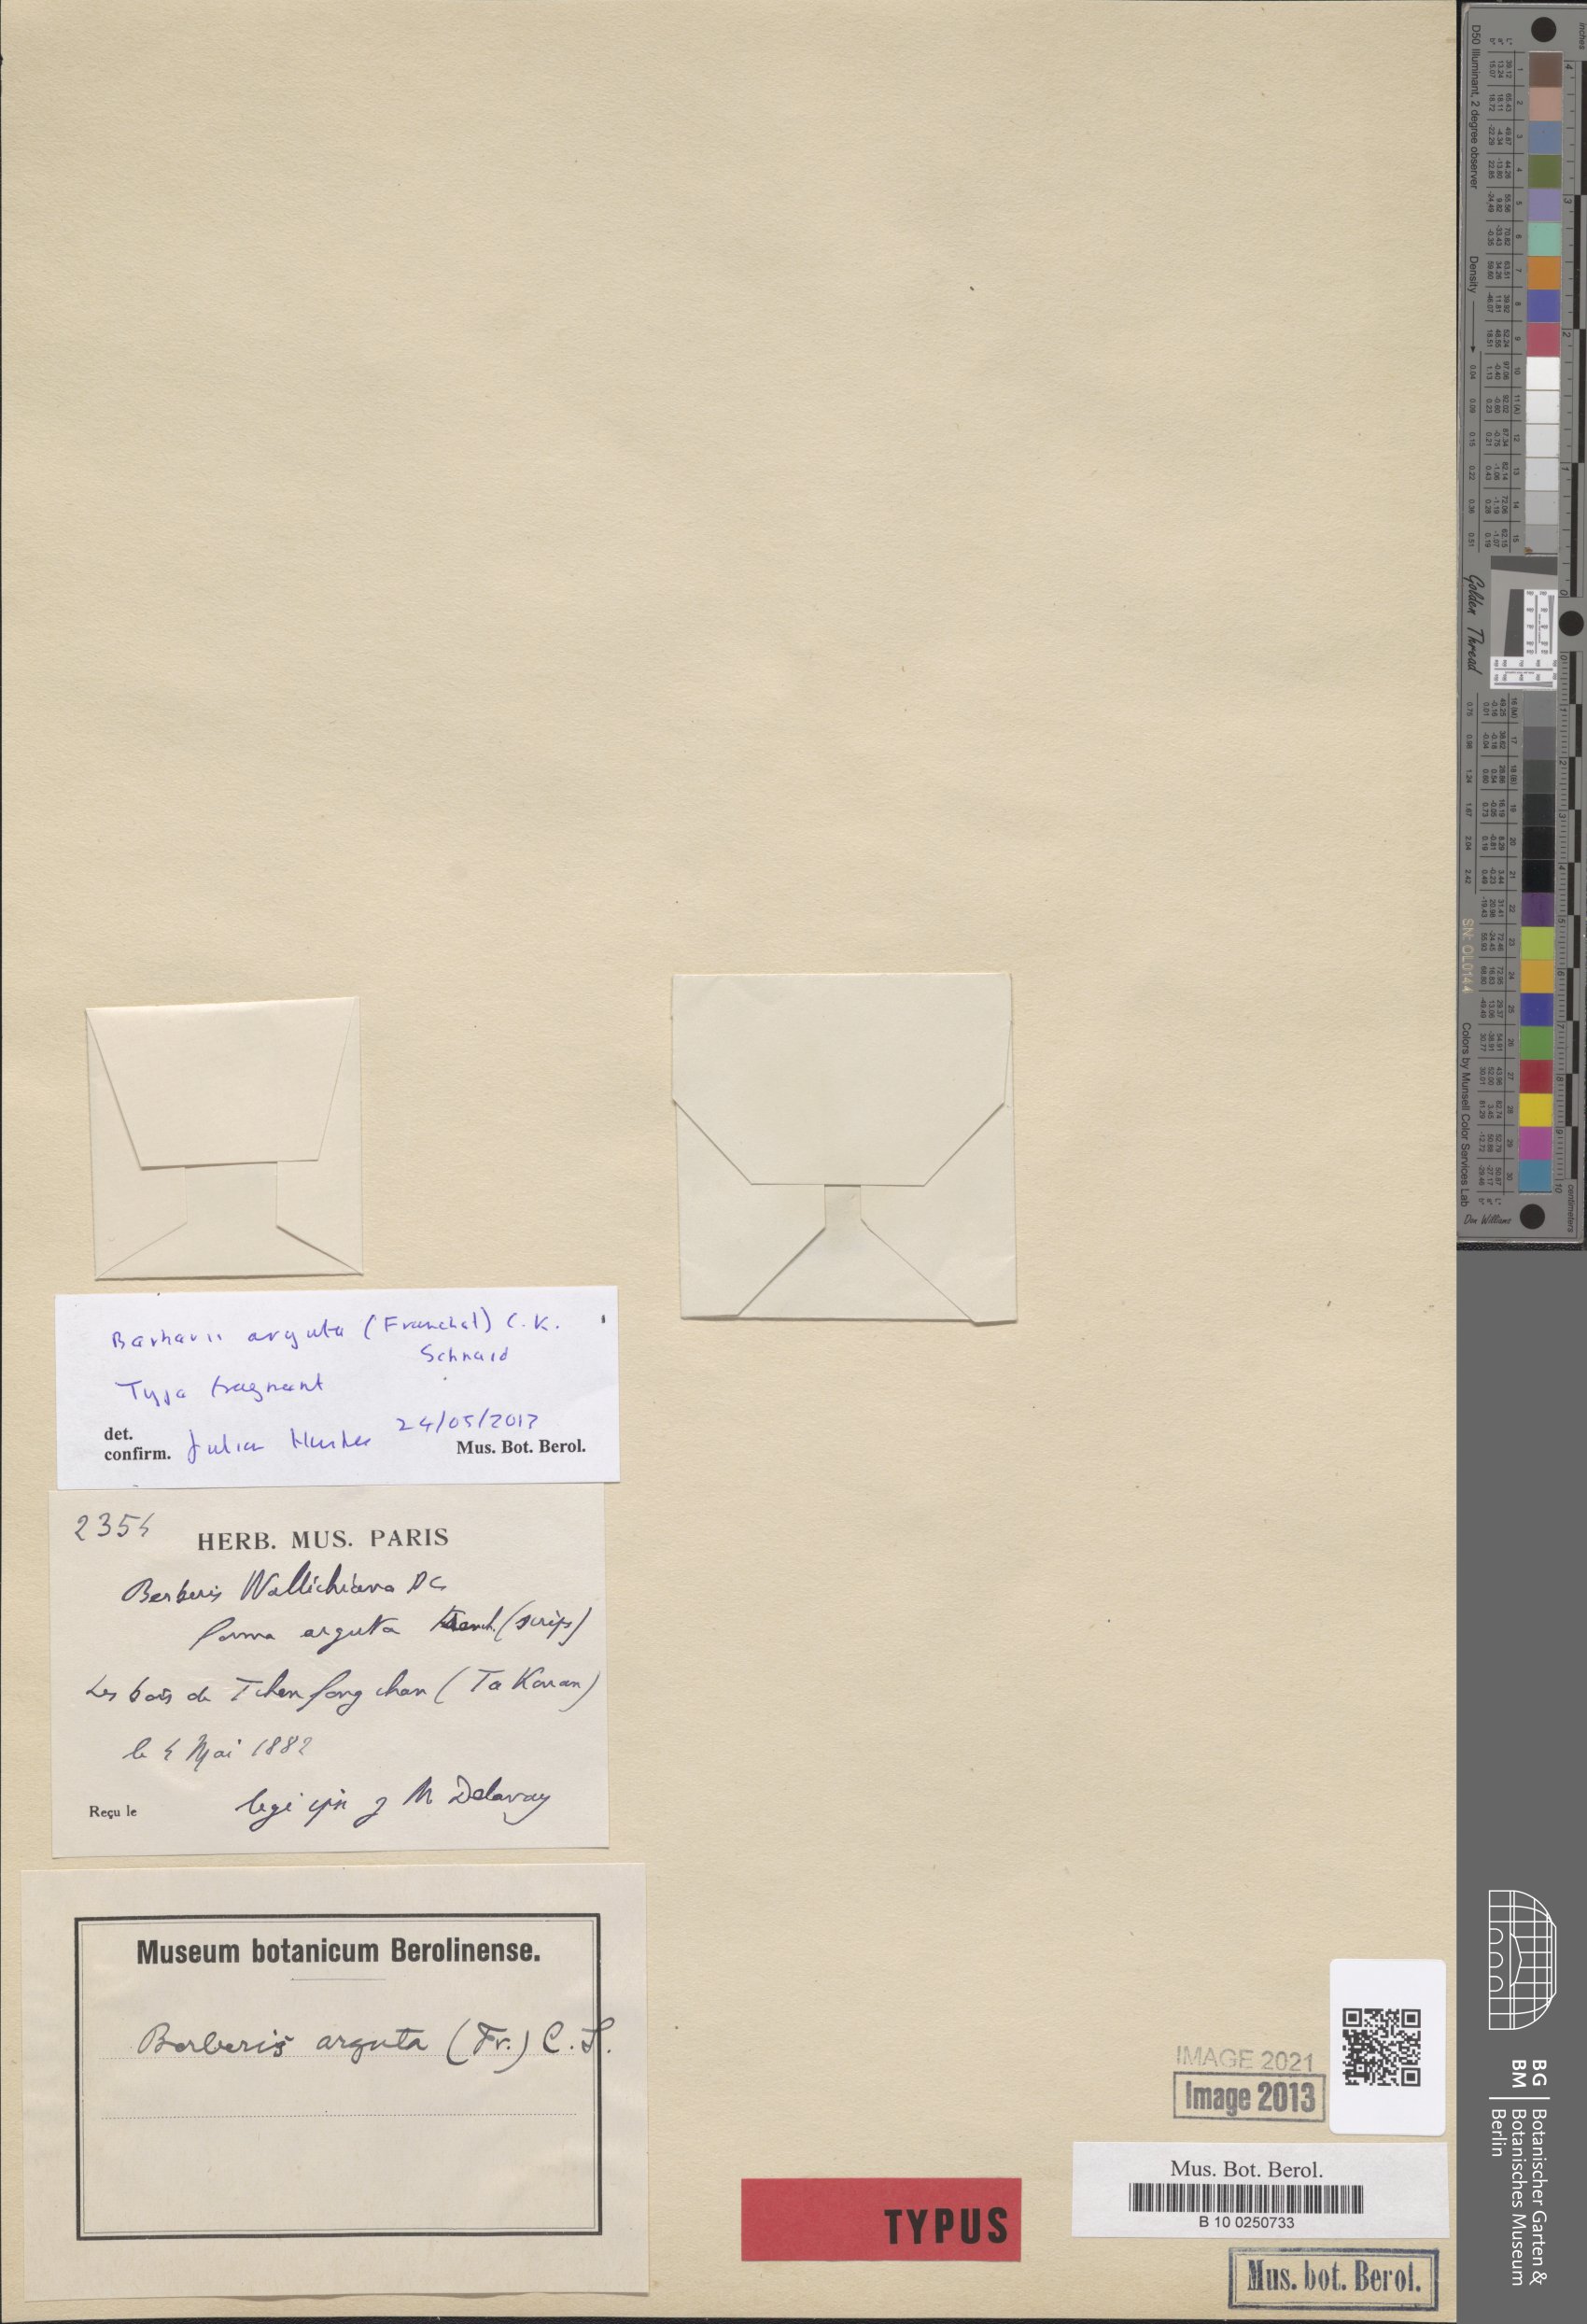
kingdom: Plantae
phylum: Tracheophyta
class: Magnoliopsida
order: Ranunculales
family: Berberidaceae
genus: Berberis
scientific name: Berberis arguta
